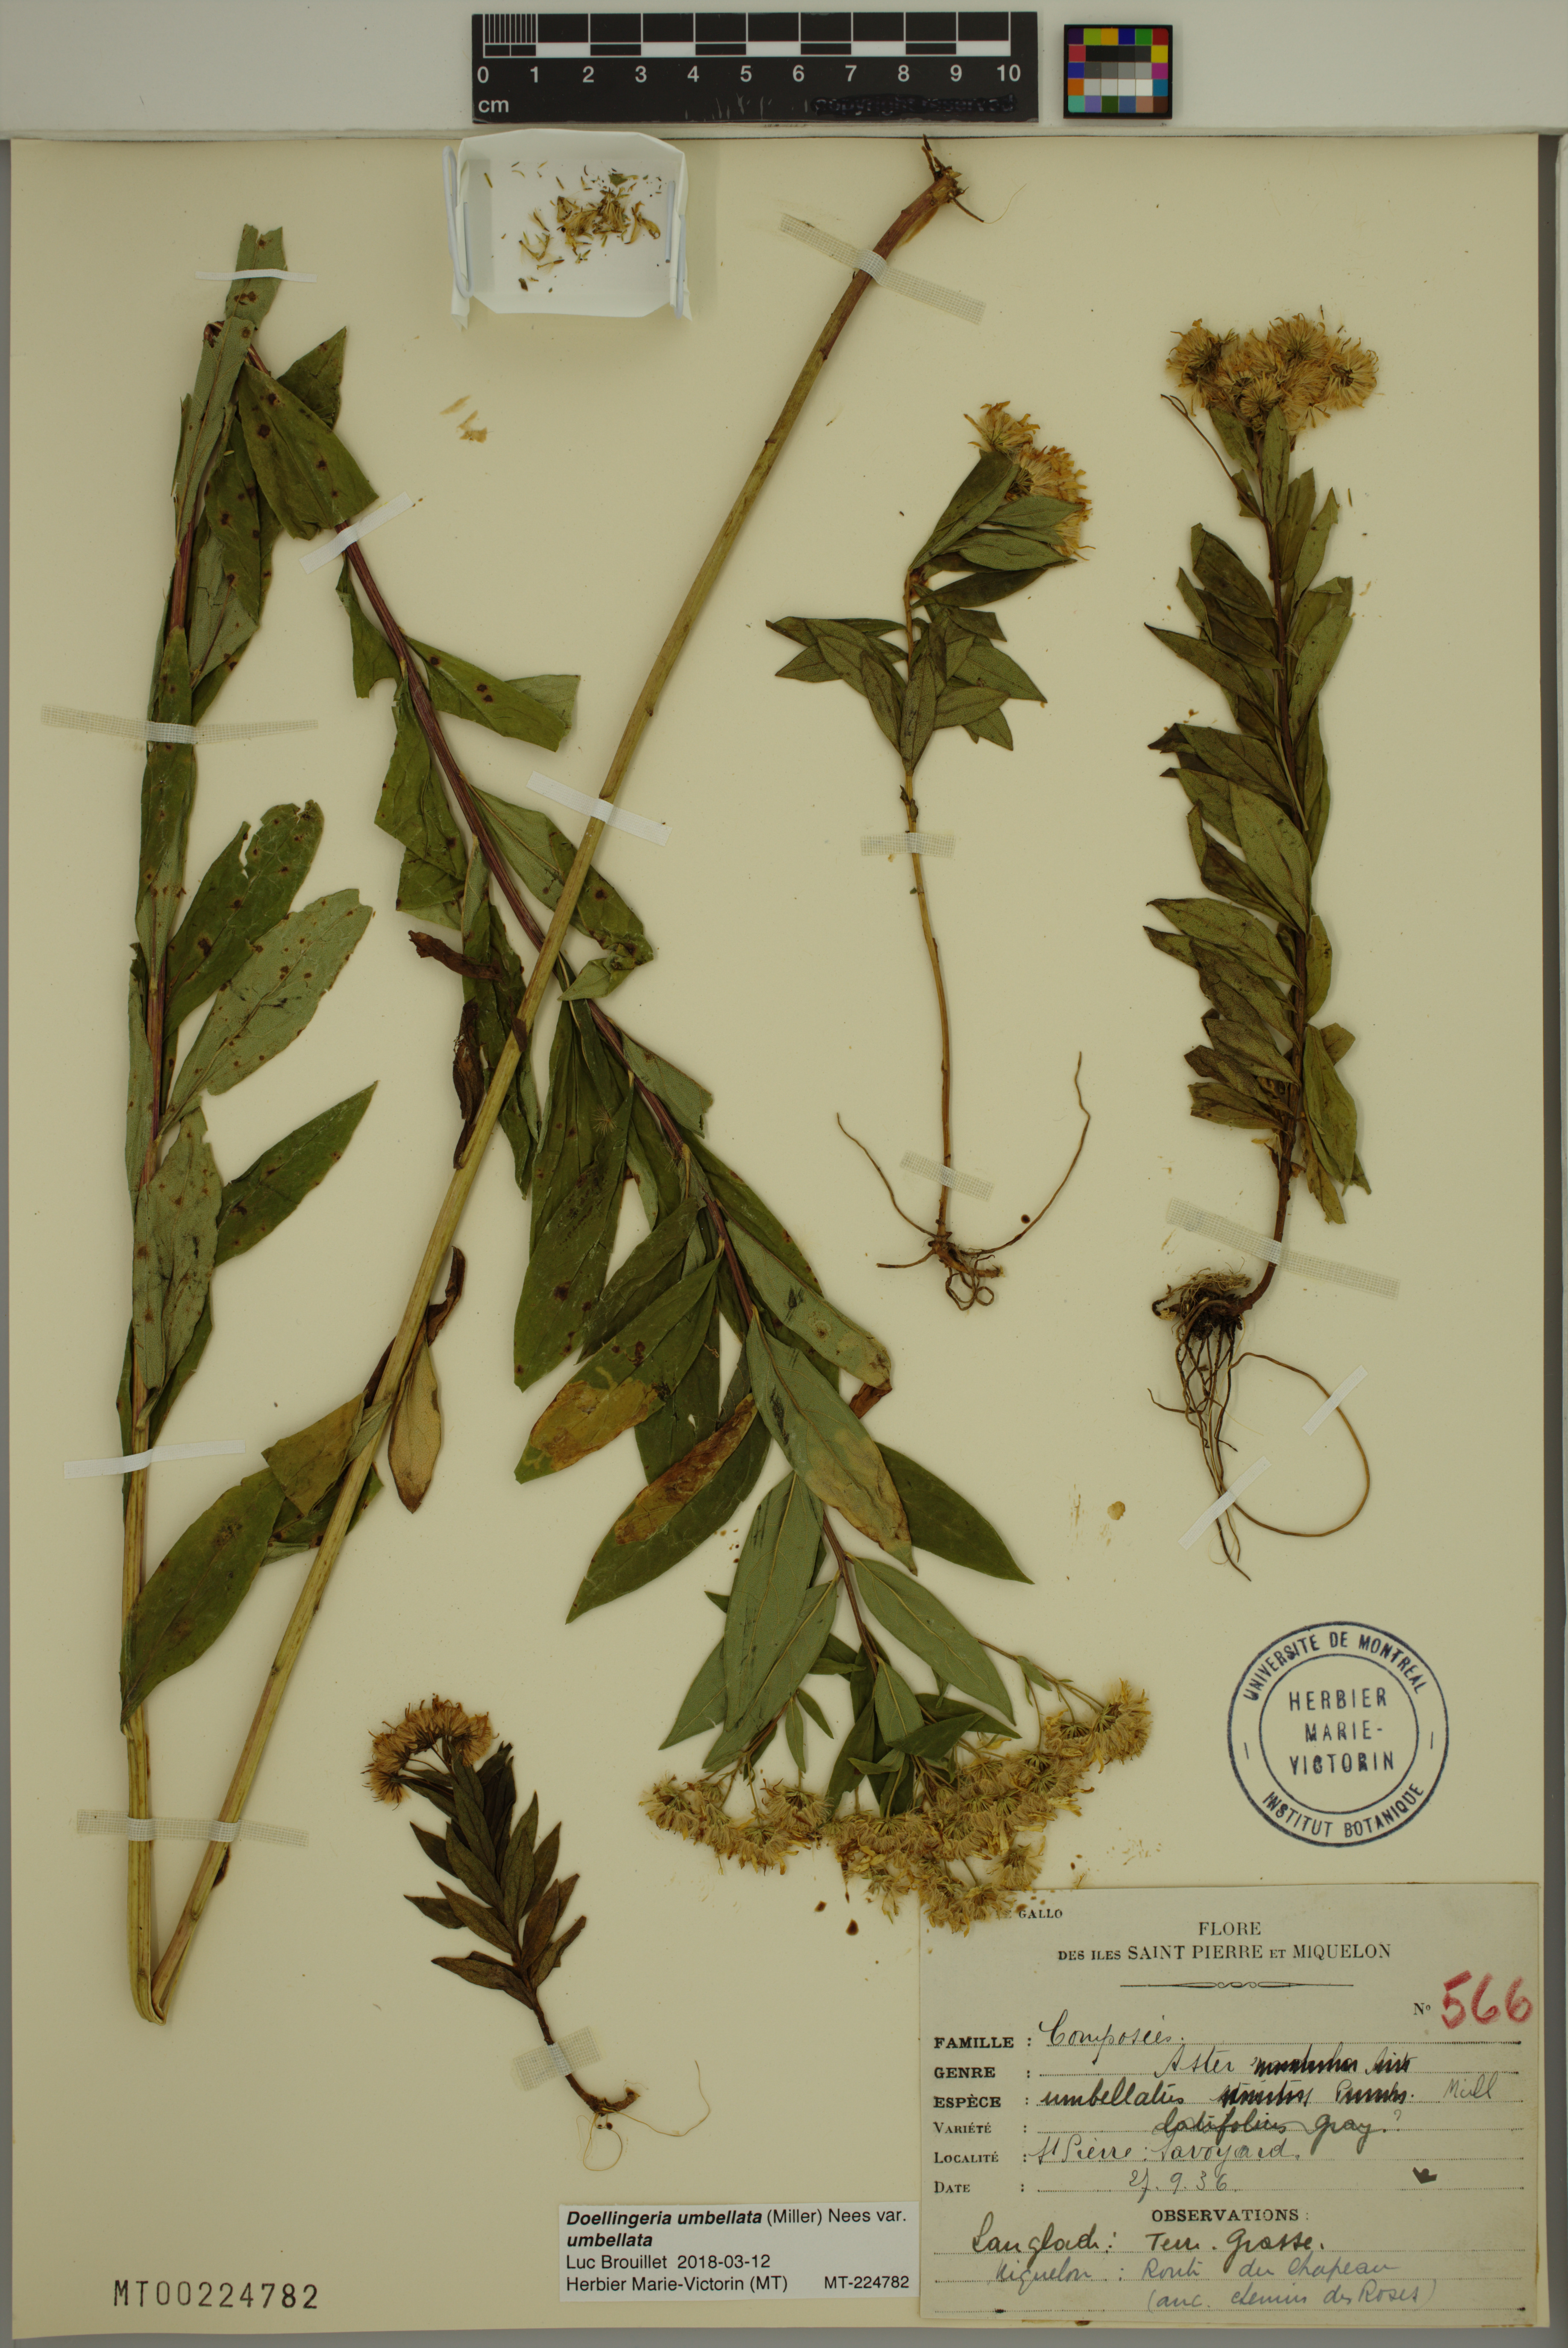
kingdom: Plantae
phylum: Tracheophyta
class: Magnoliopsida
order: Asterales
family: Asteraceae
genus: Doellingeria
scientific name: Doellingeria umbellata
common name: Flat-top white aster
